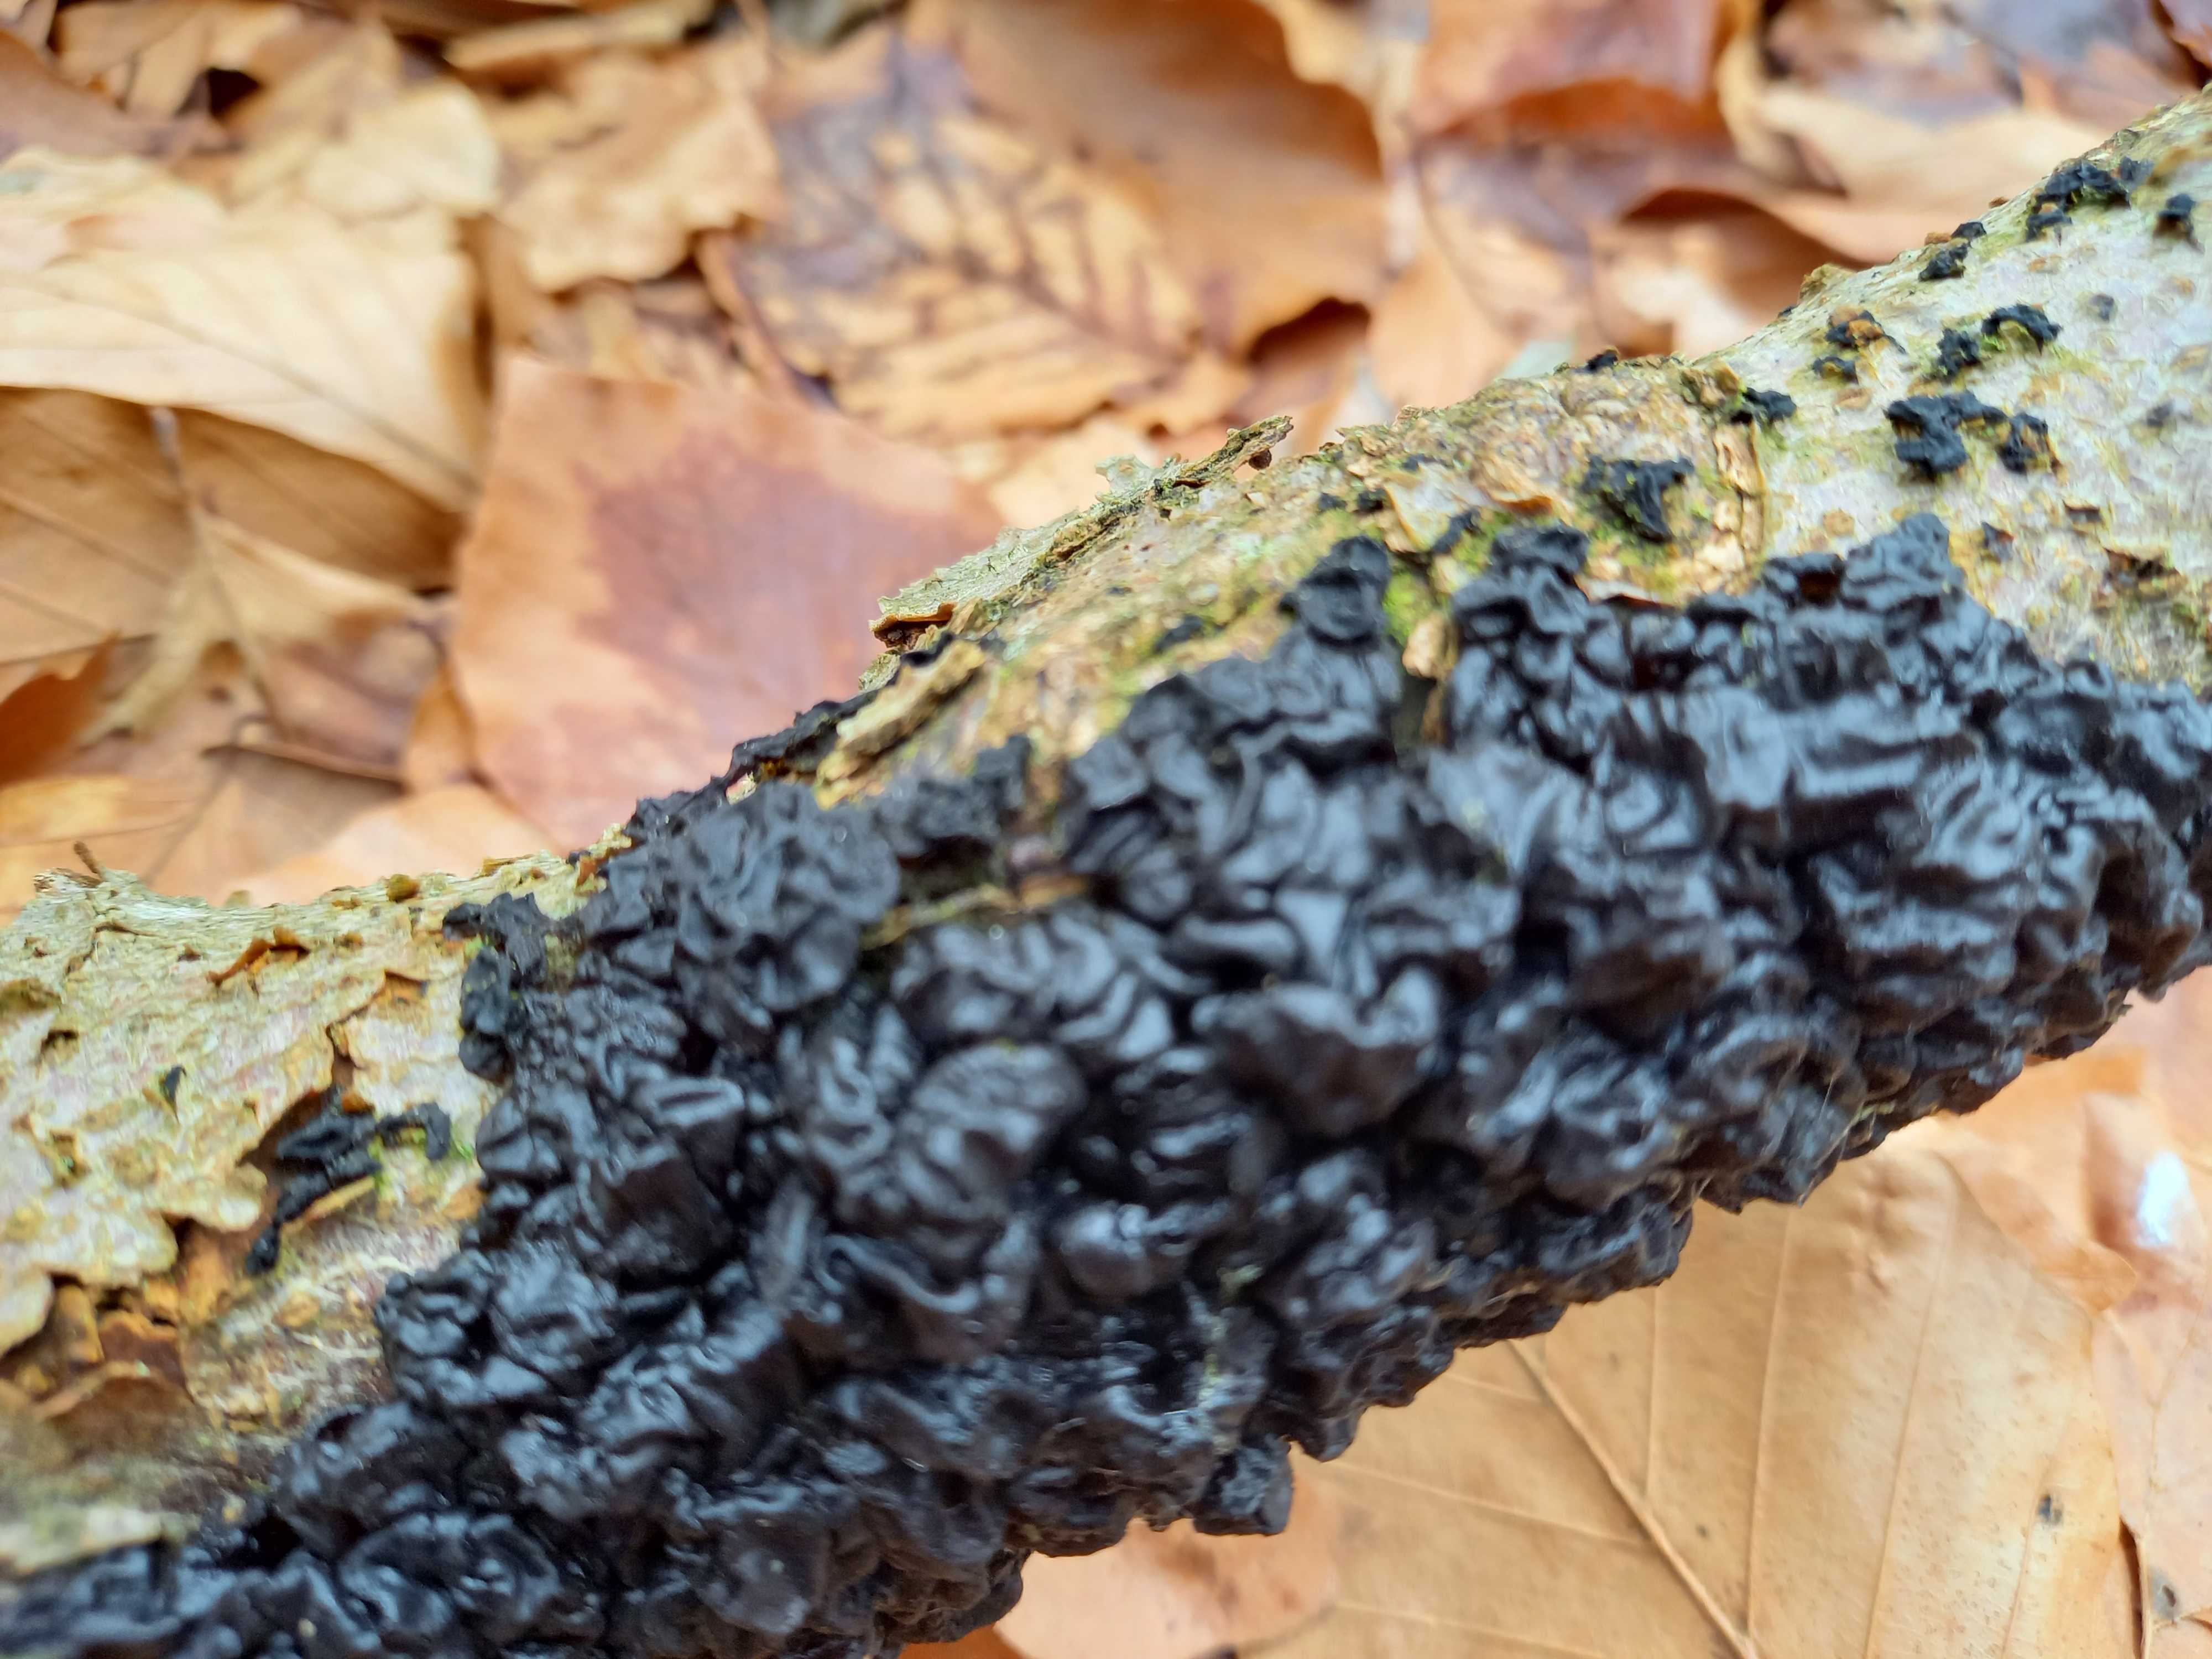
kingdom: Fungi
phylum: Basidiomycota
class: Agaricomycetes
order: Auriculariales
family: Auriculariaceae
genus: Exidia
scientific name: Exidia nigricans
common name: almindelig bævretop
